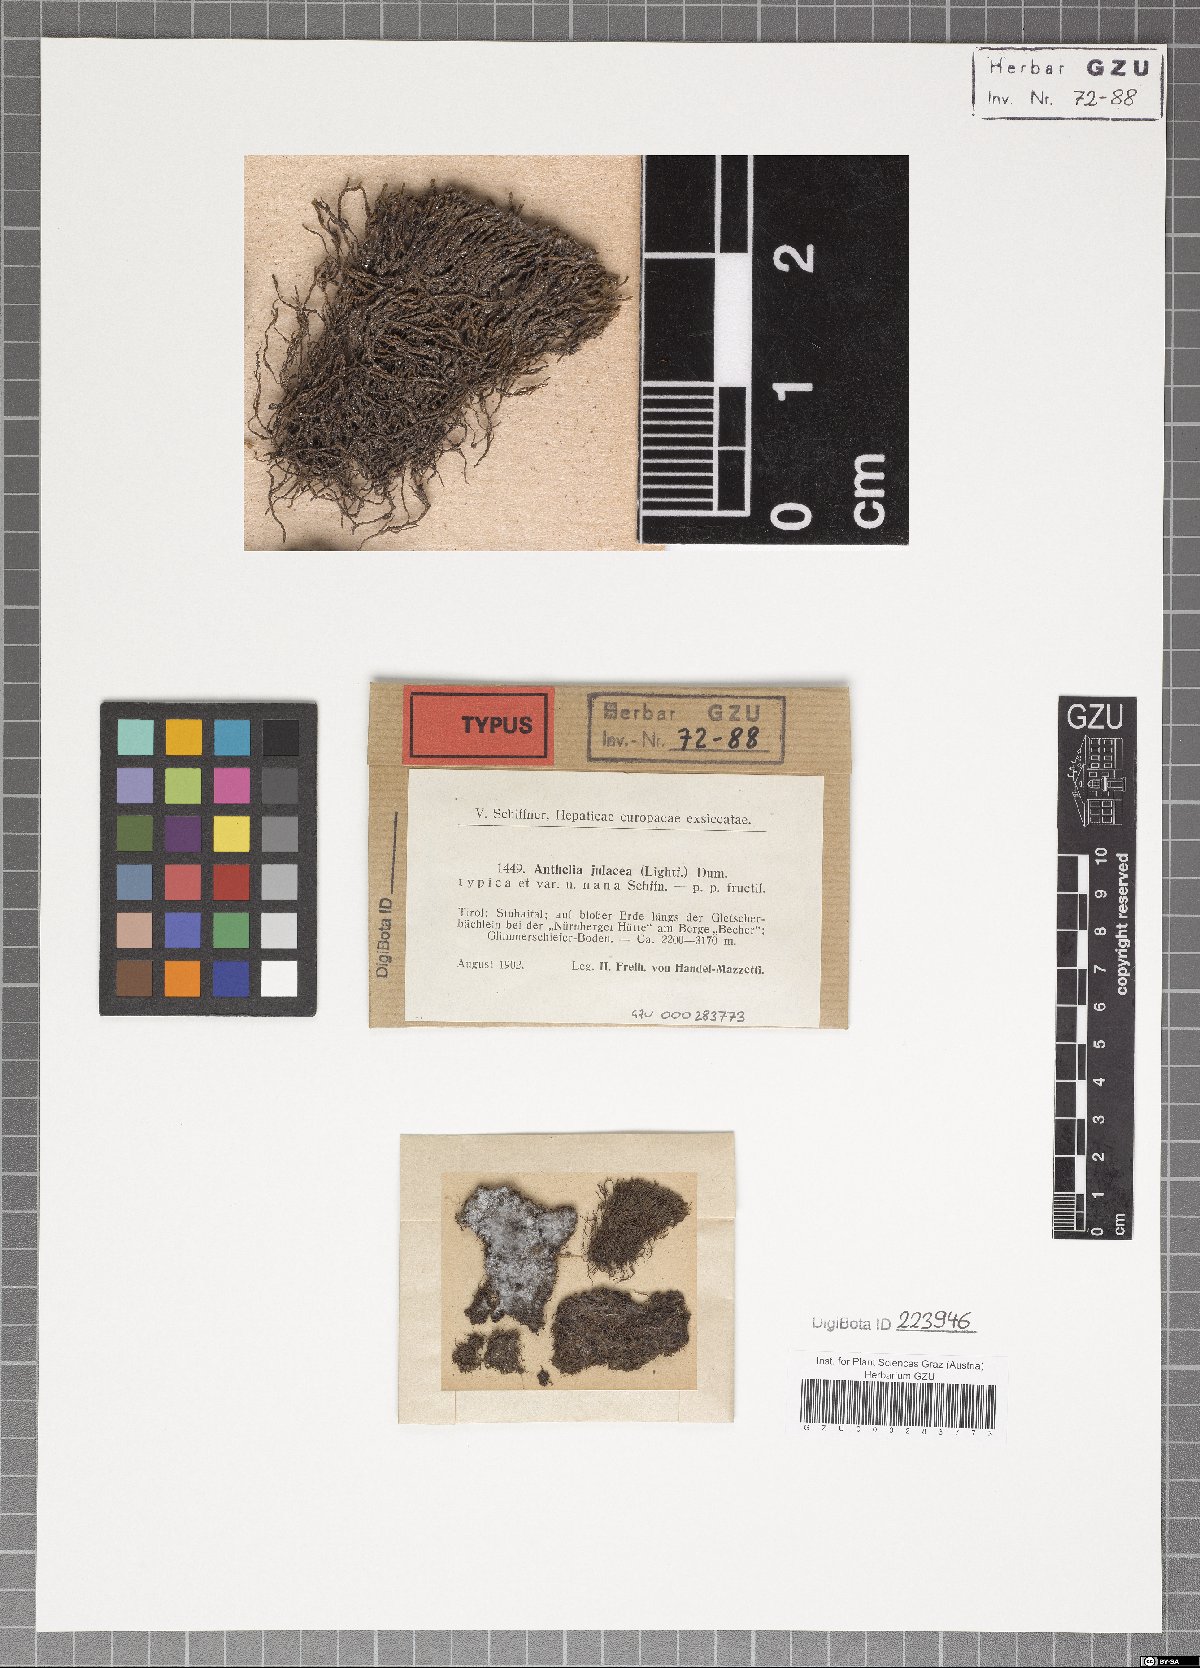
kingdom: Plantae
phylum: Marchantiophyta
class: Jungermanniopsida
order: Jungermanniales
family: Antheliaceae
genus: Anthelia
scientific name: Anthelia julacea
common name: Alpine silverwort
